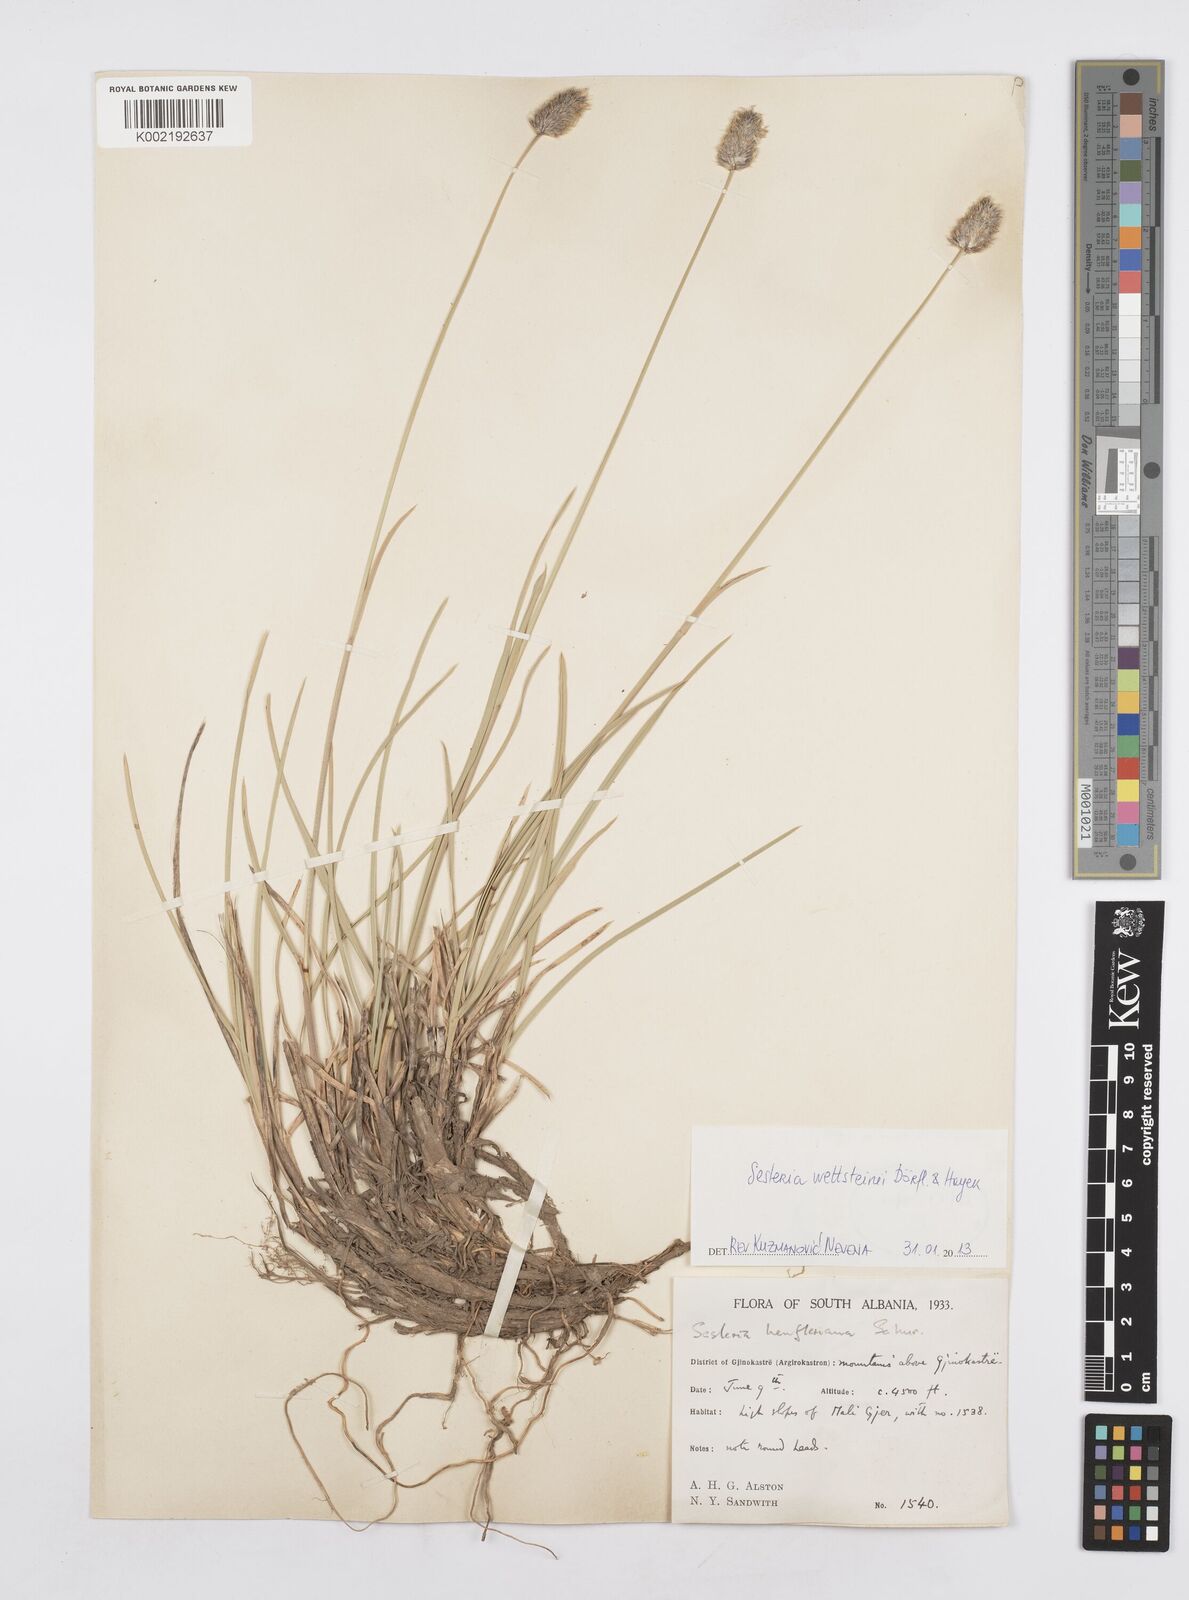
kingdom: Plantae
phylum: Tracheophyta
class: Liliopsida
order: Poales
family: Poaceae
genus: Sesleria
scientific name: Sesleria wettsteinii
